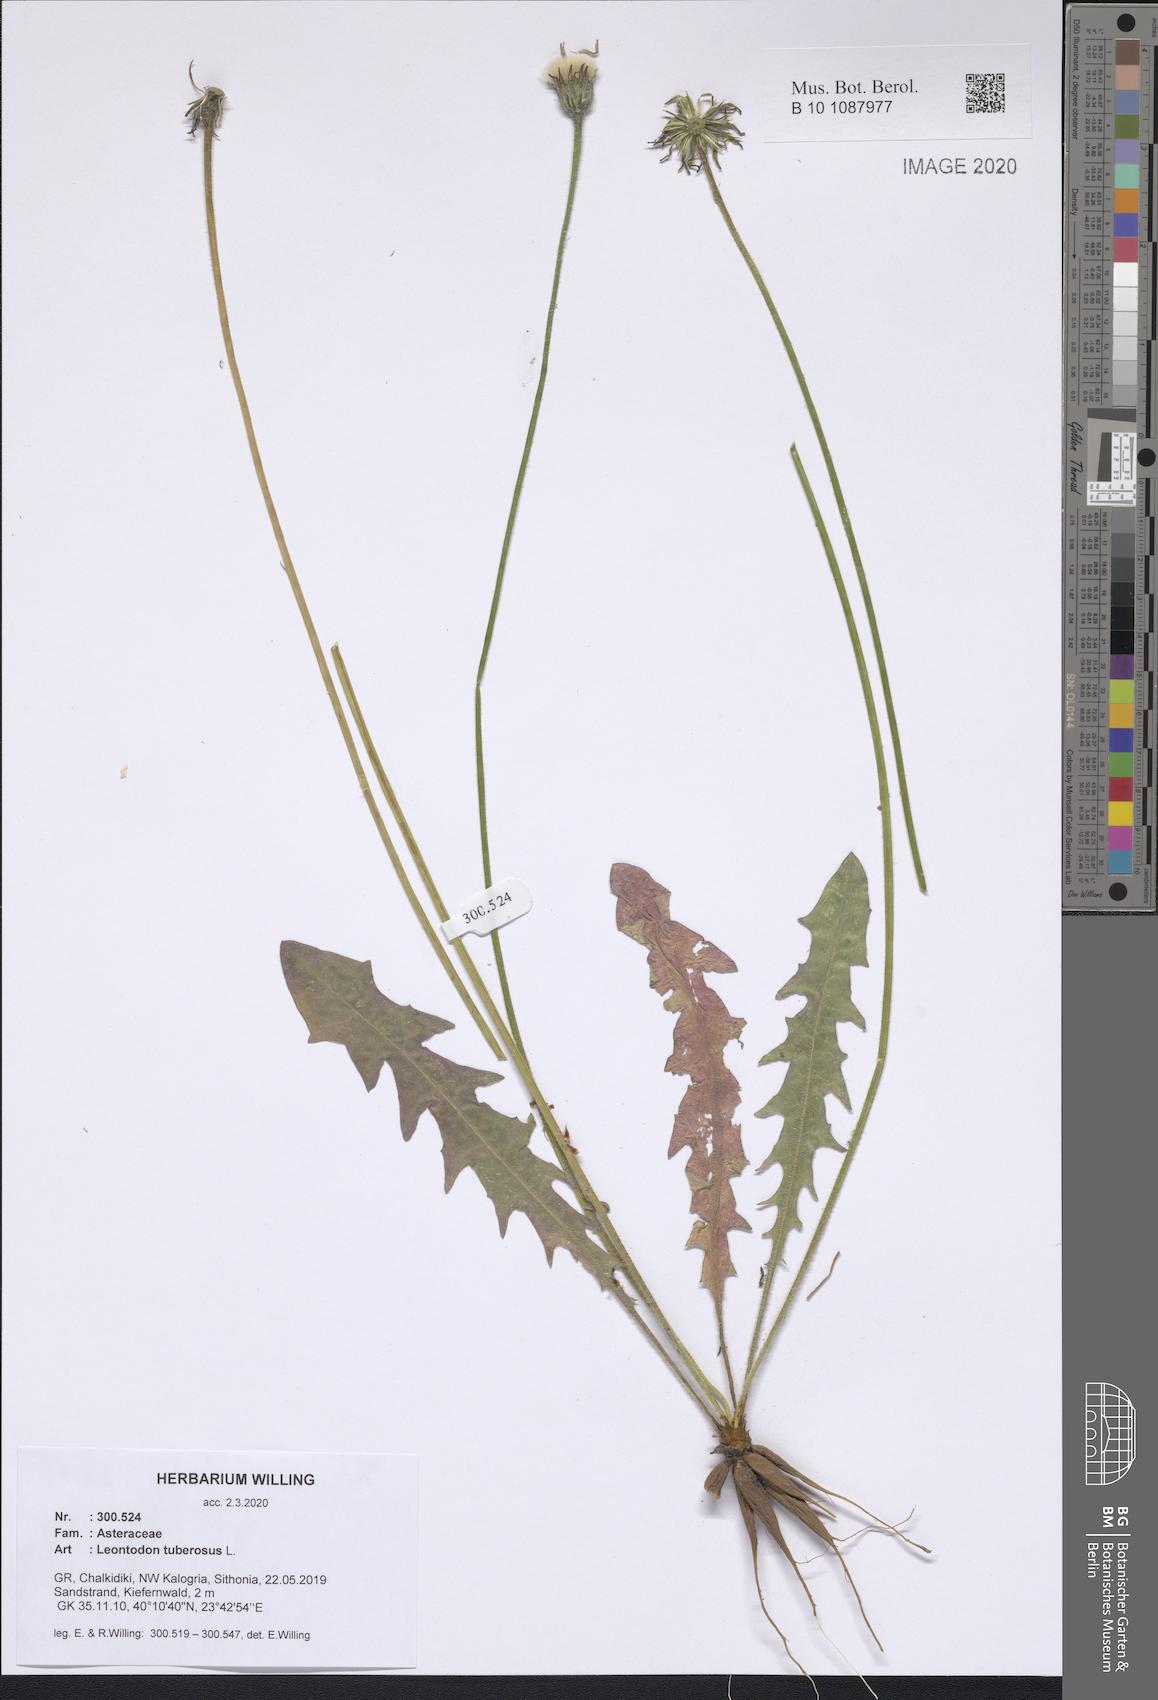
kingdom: Plantae
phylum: Tracheophyta
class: Magnoliopsida
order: Asterales
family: Asteraceae
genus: Thrincia
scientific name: Thrincia tuberosa
